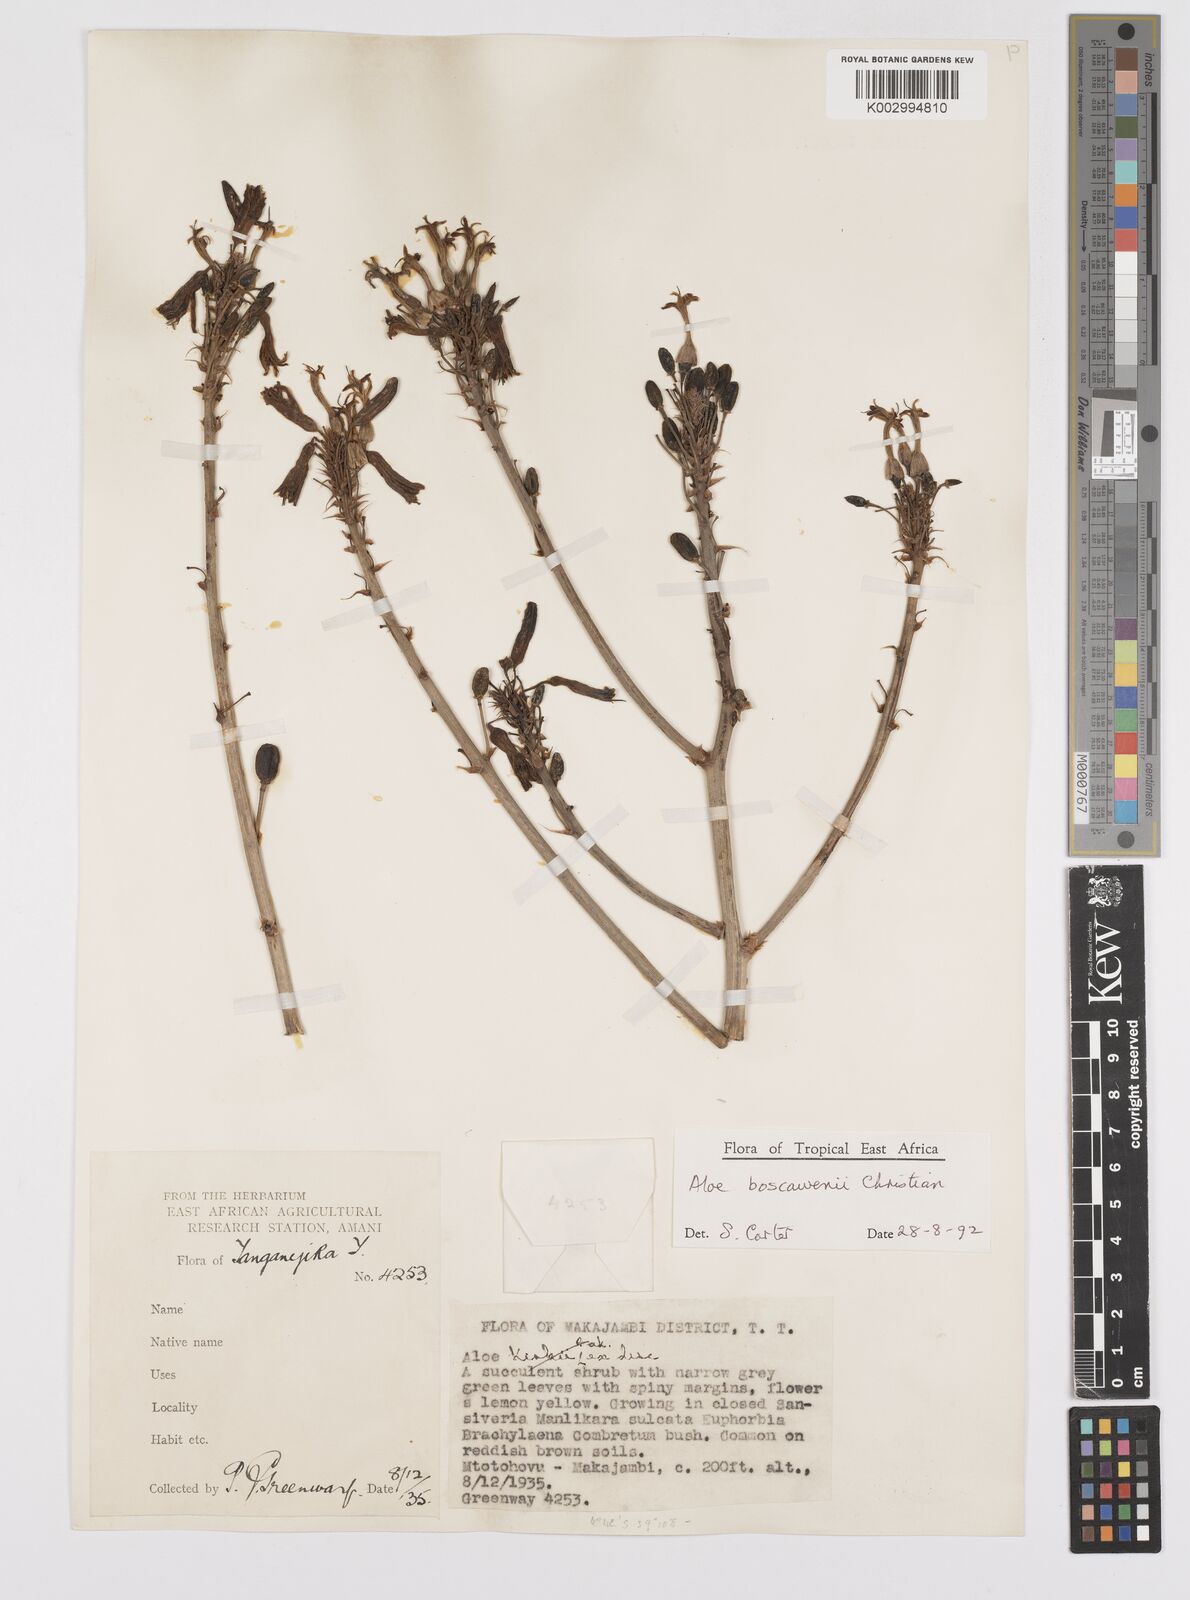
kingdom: Plantae
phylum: Tracheophyta
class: Liliopsida
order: Asparagales
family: Asphodelaceae
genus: Aloe
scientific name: Aloe boscawenii
